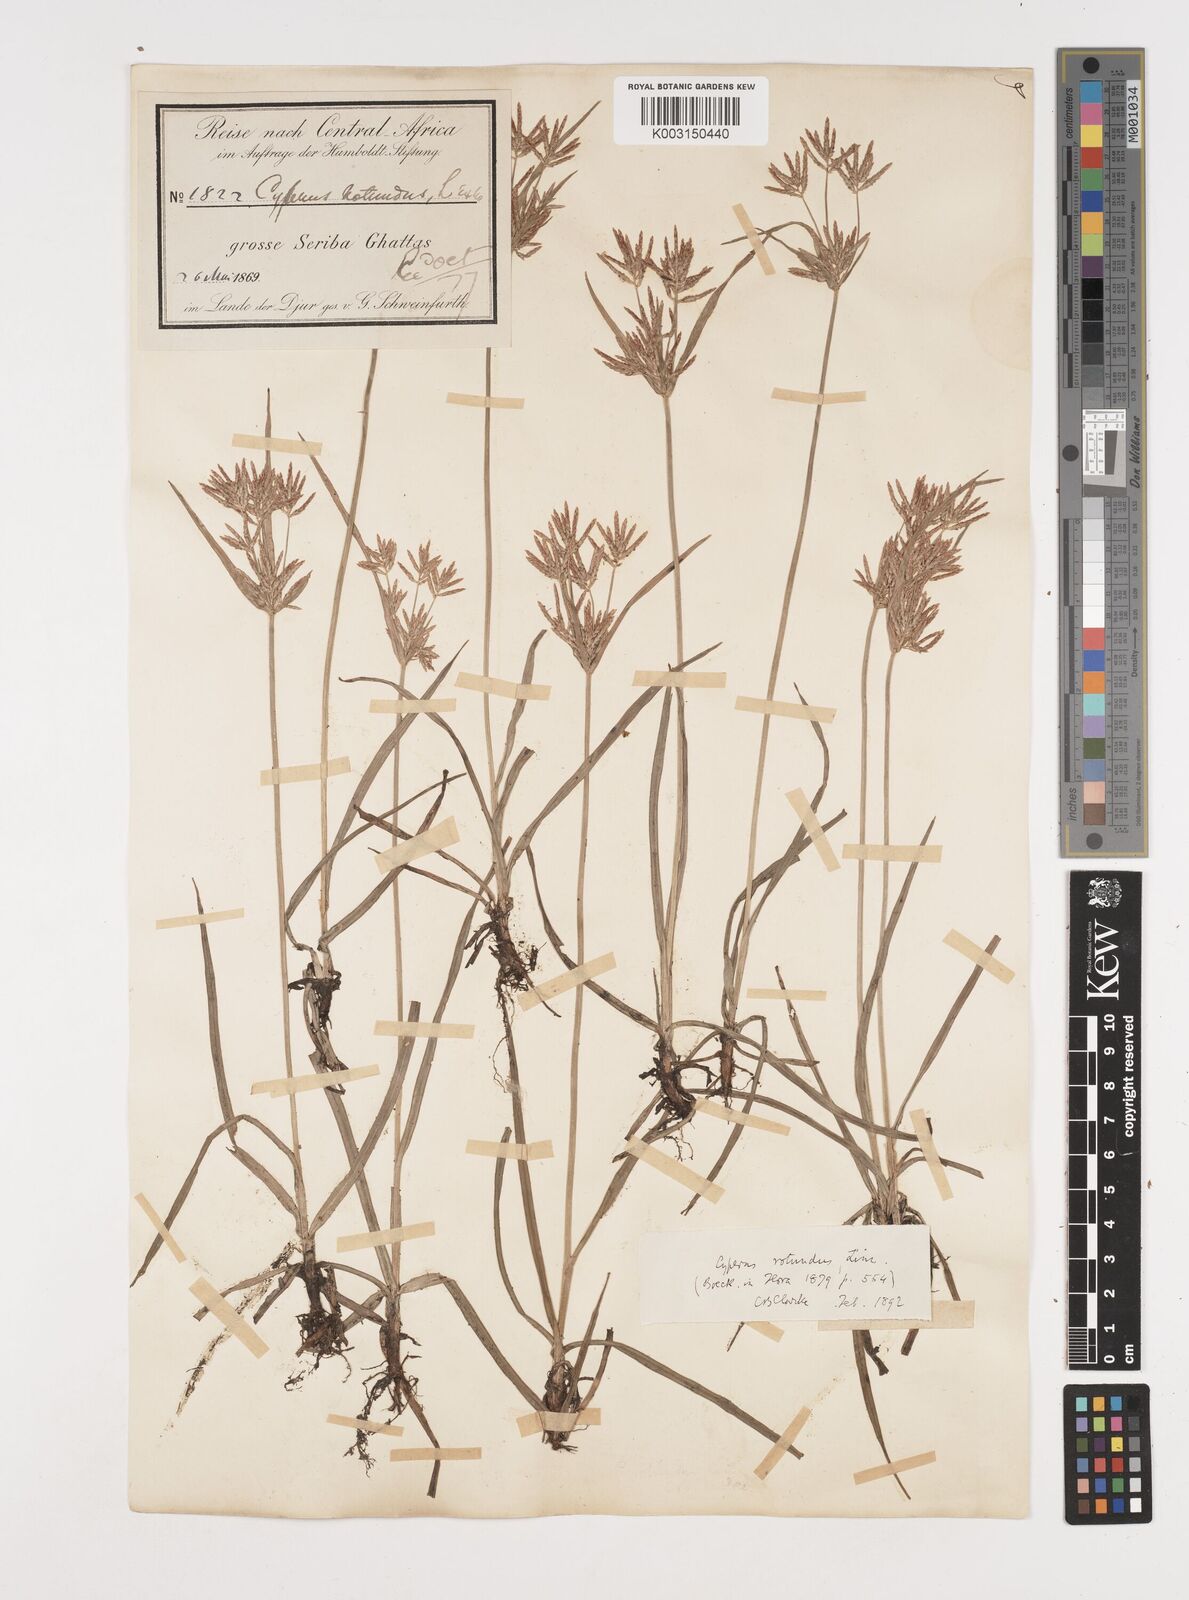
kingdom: Plantae
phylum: Tracheophyta
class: Liliopsida
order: Poales
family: Cyperaceae
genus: Cyperus
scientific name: Cyperus rotundus
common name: Nutgrass
